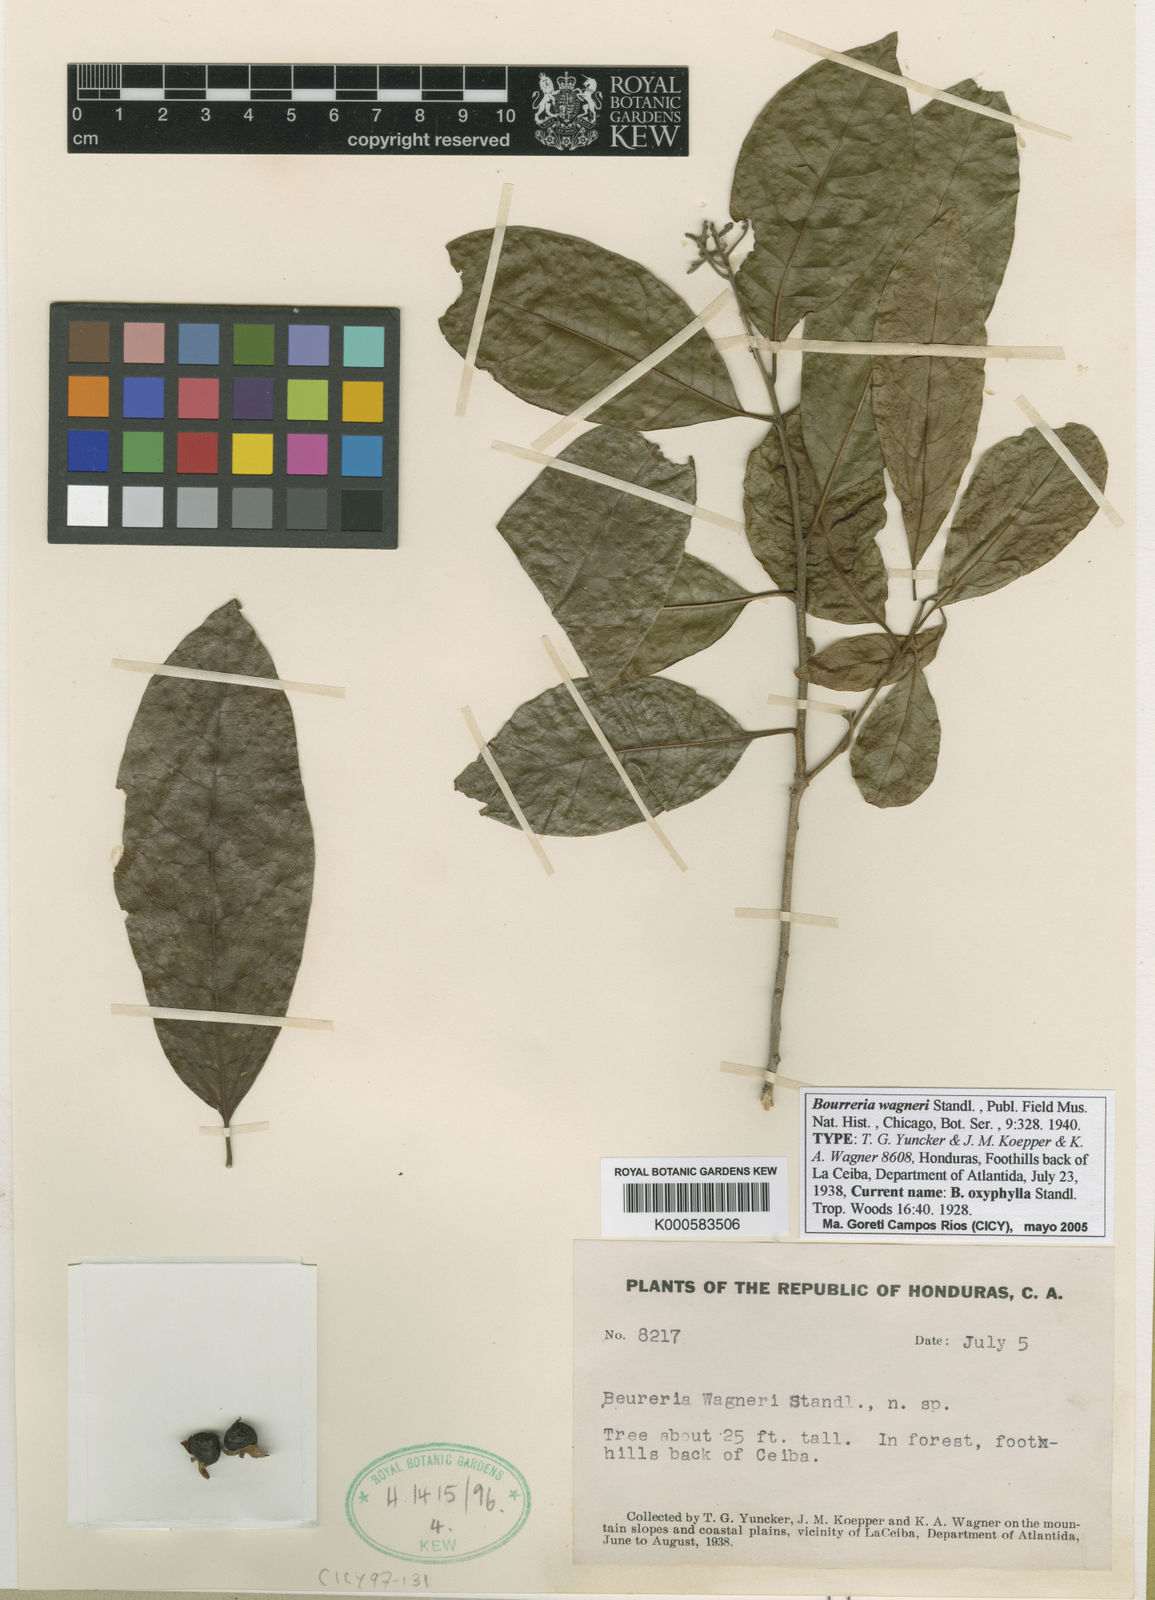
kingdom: Plantae
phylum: Tracheophyta
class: Magnoliopsida
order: Boraginales
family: Ehretiaceae
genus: Bourreria
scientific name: Bourreria mollis
